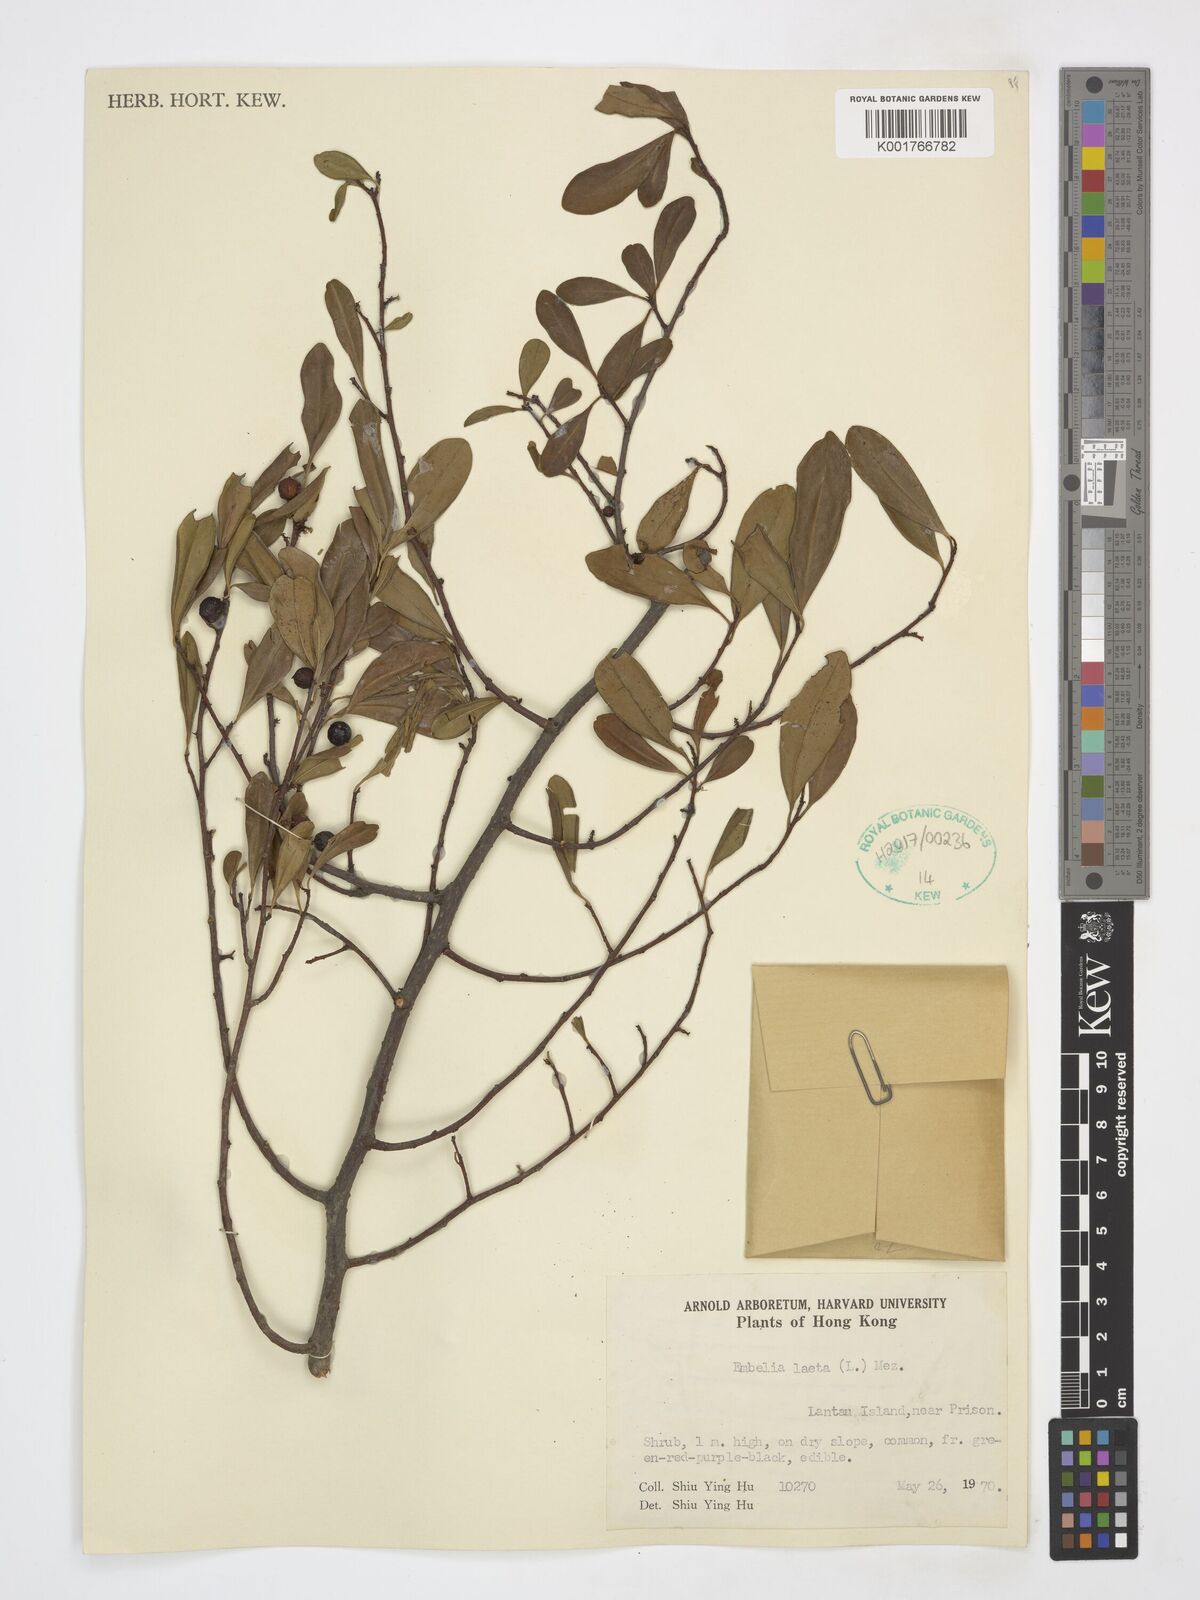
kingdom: Plantae
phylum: Tracheophyta
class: Magnoliopsida
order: Ericales
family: Primulaceae
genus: Embelia
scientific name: Embelia laeta
